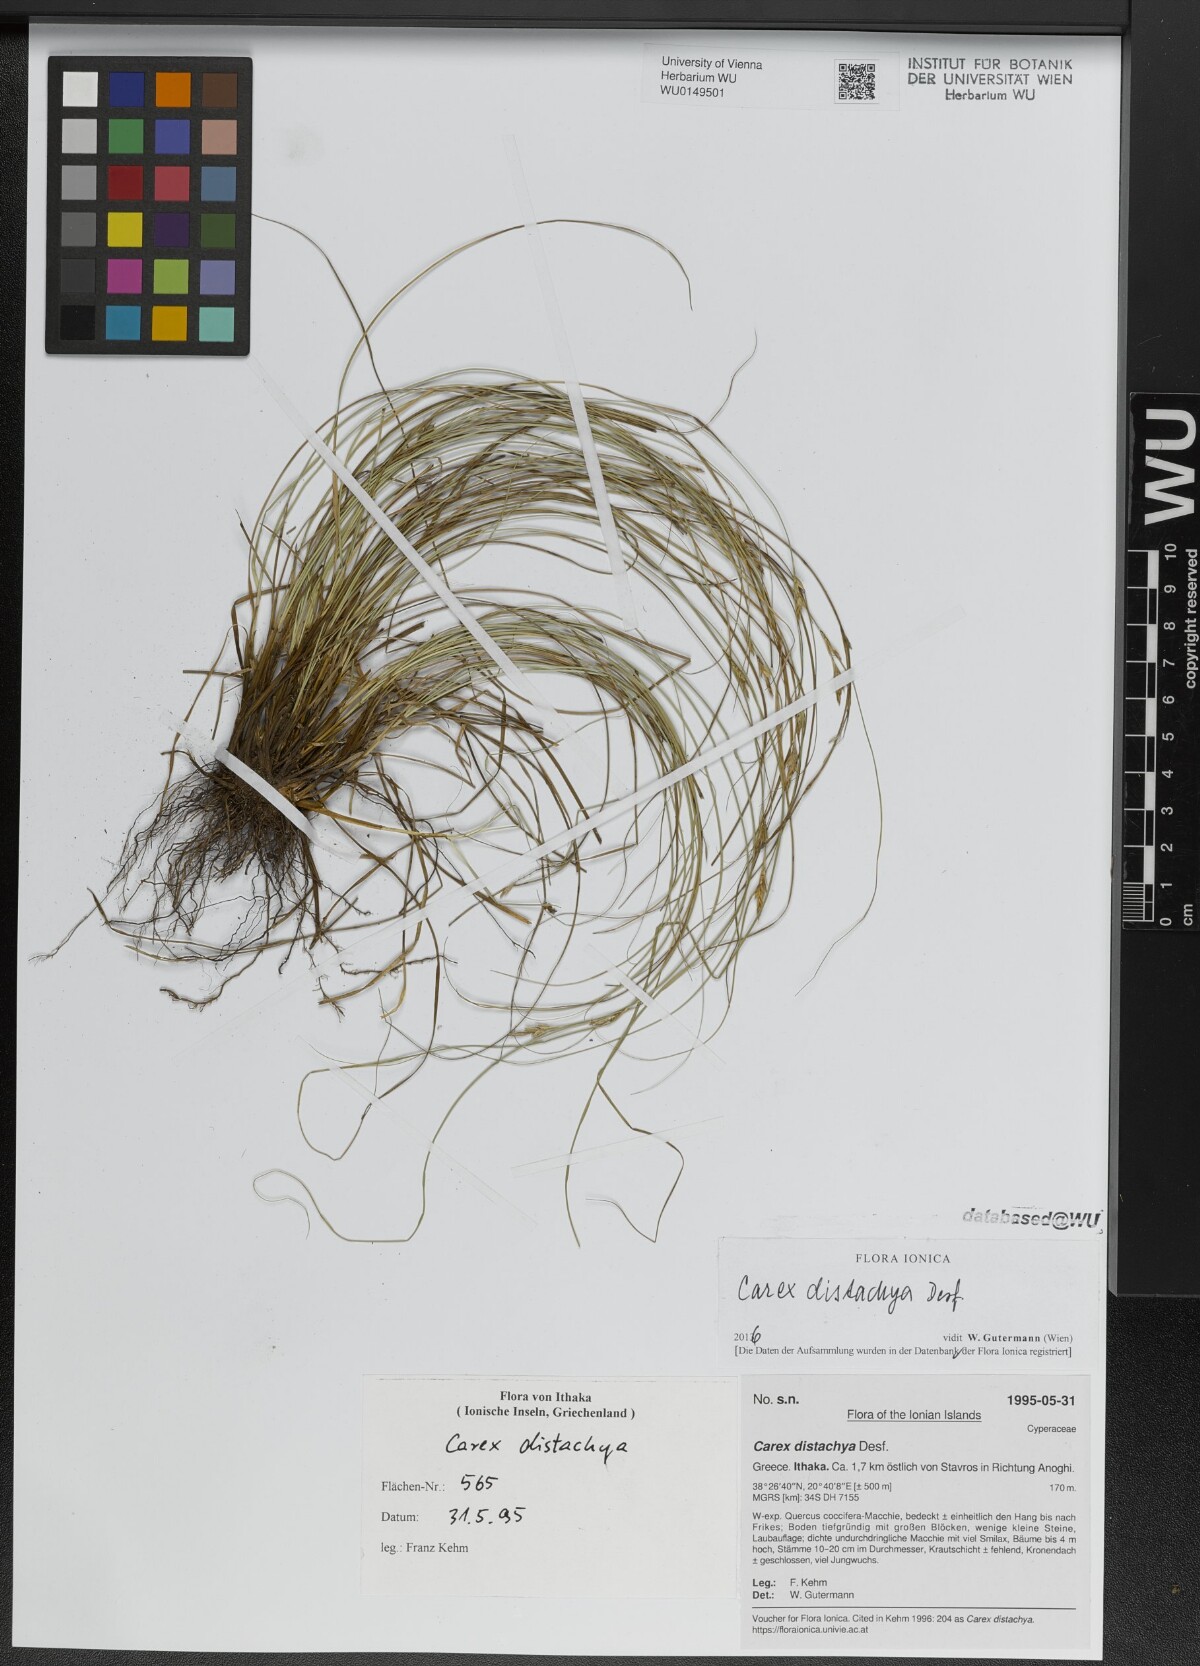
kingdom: Plantae
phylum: Tracheophyta
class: Liliopsida
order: Poales
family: Cyperaceae
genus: Carex
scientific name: Carex distachya
